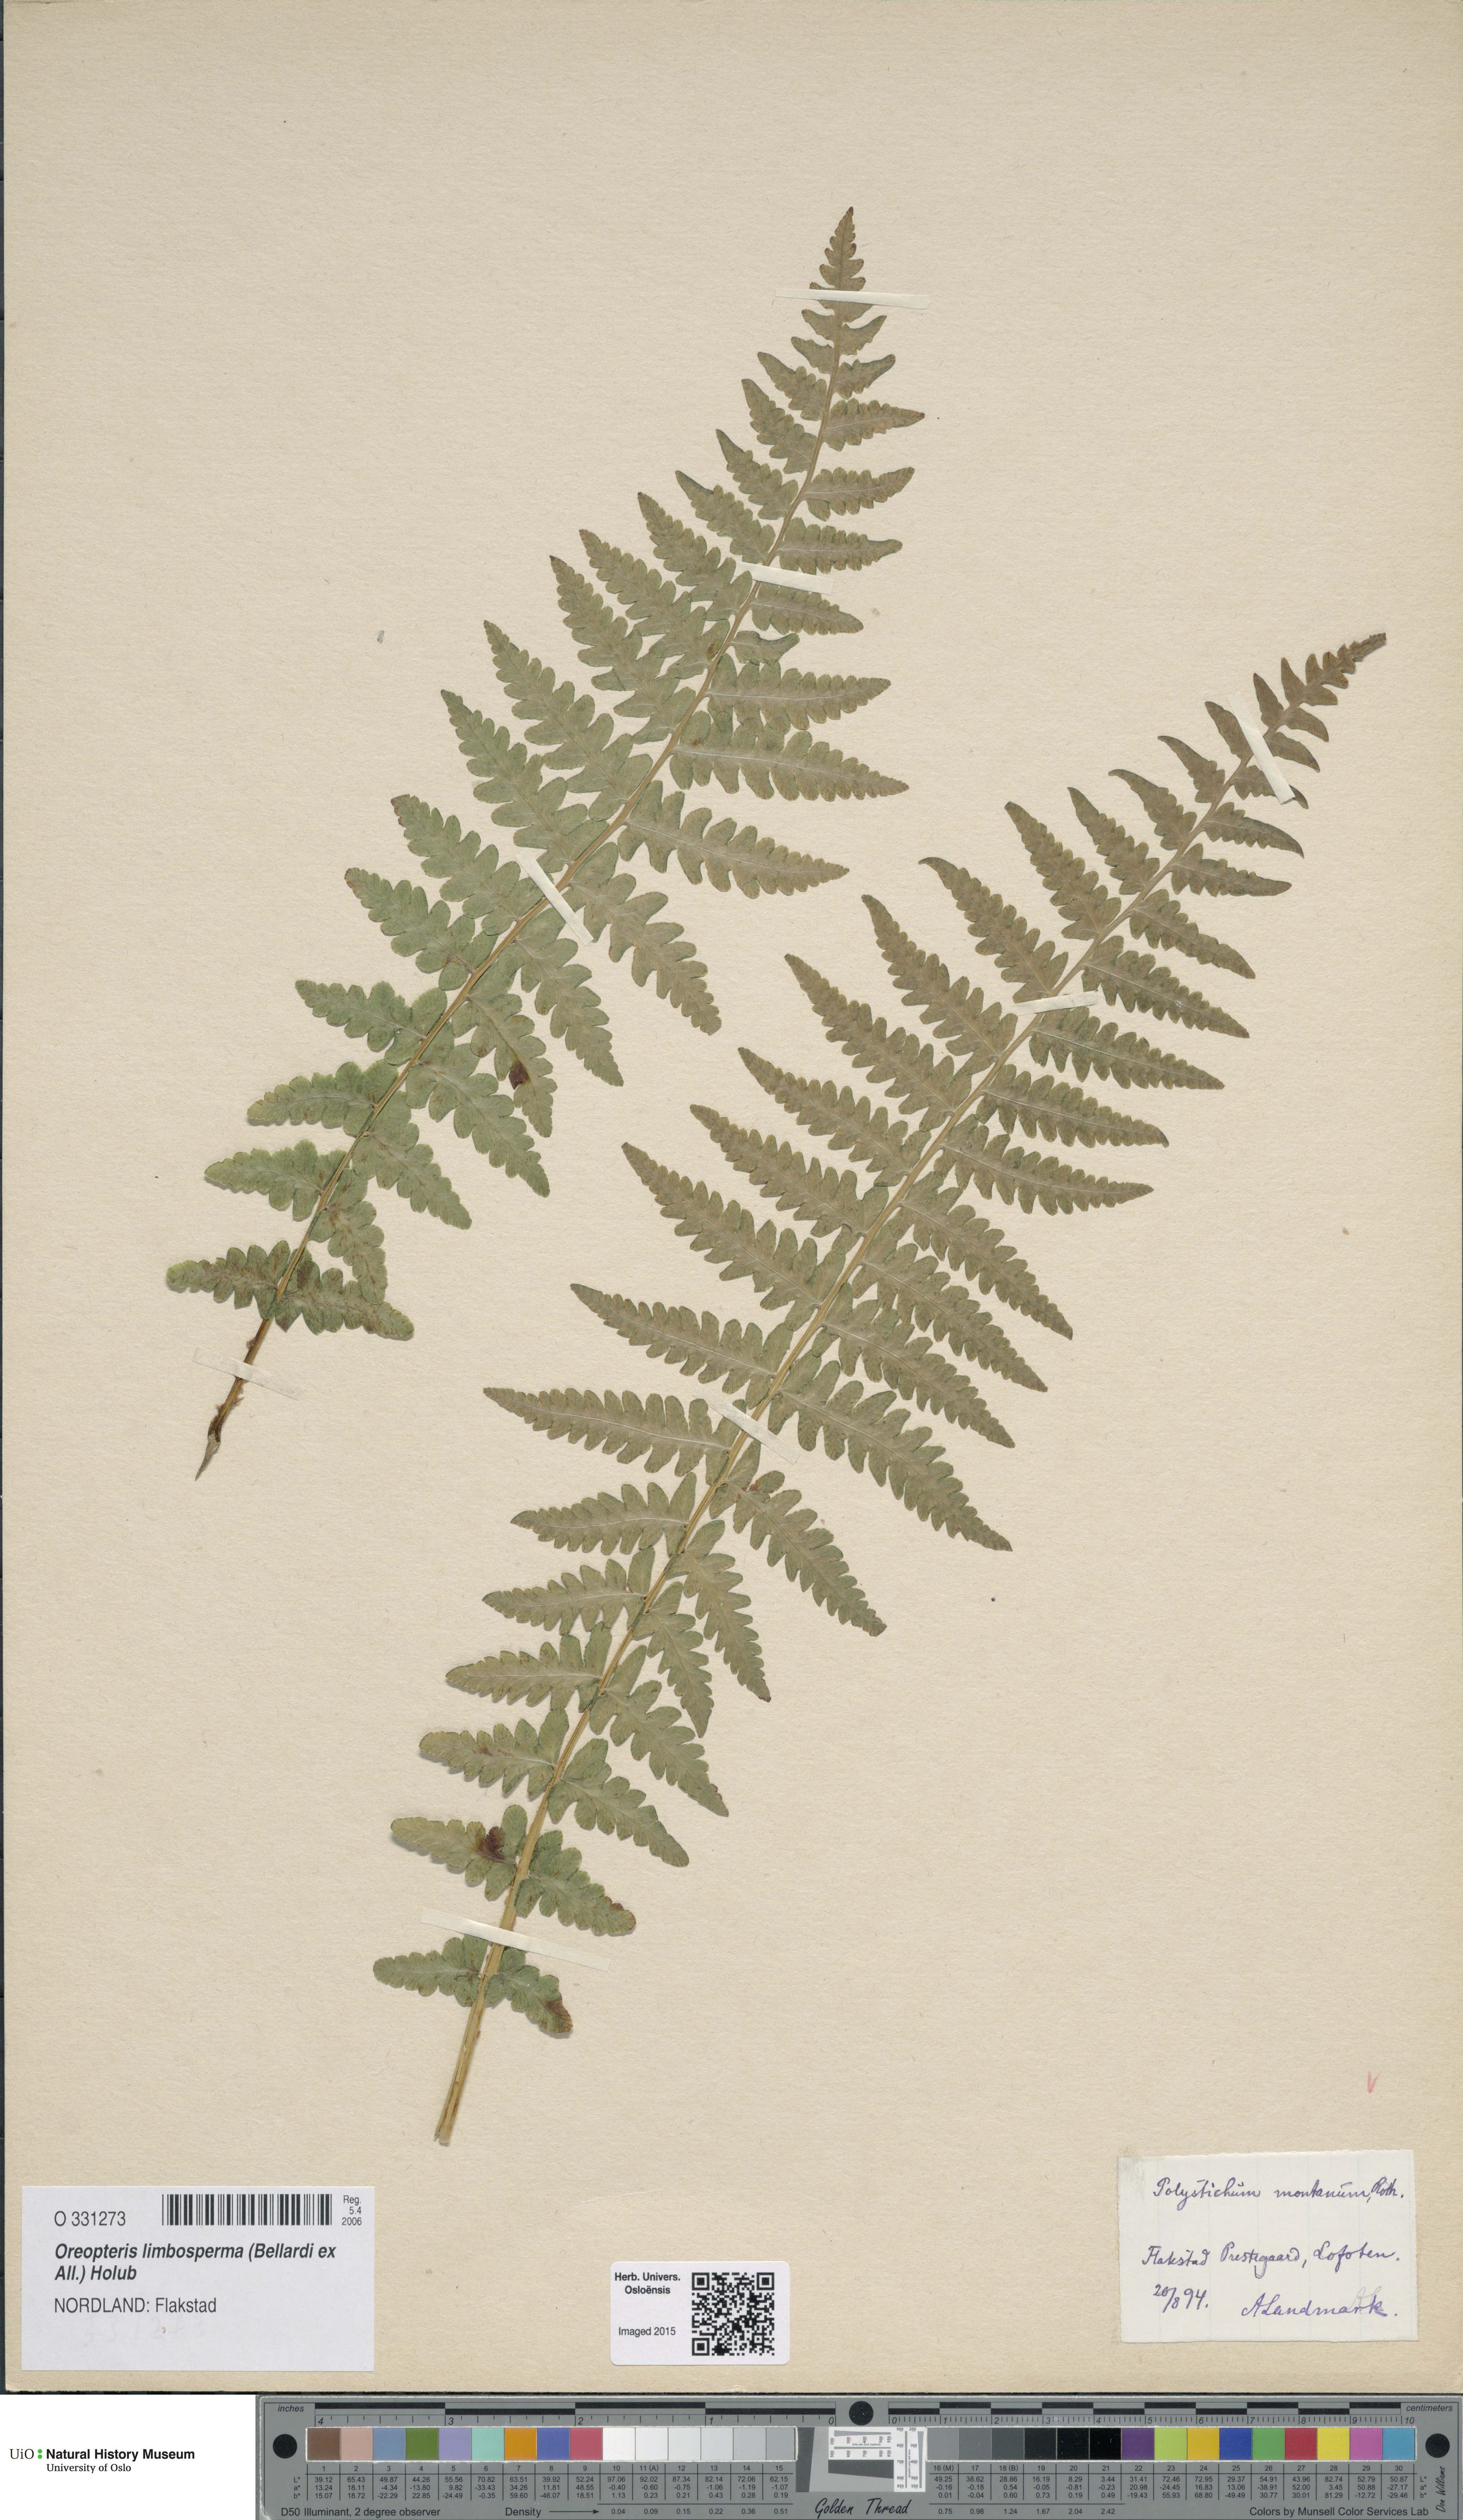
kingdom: Plantae
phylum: Tracheophyta
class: Polypodiopsida
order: Polypodiales
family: Thelypteridaceae
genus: Oreopteris
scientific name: Oreopteris limbosperma
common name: Lemon-scented fern
